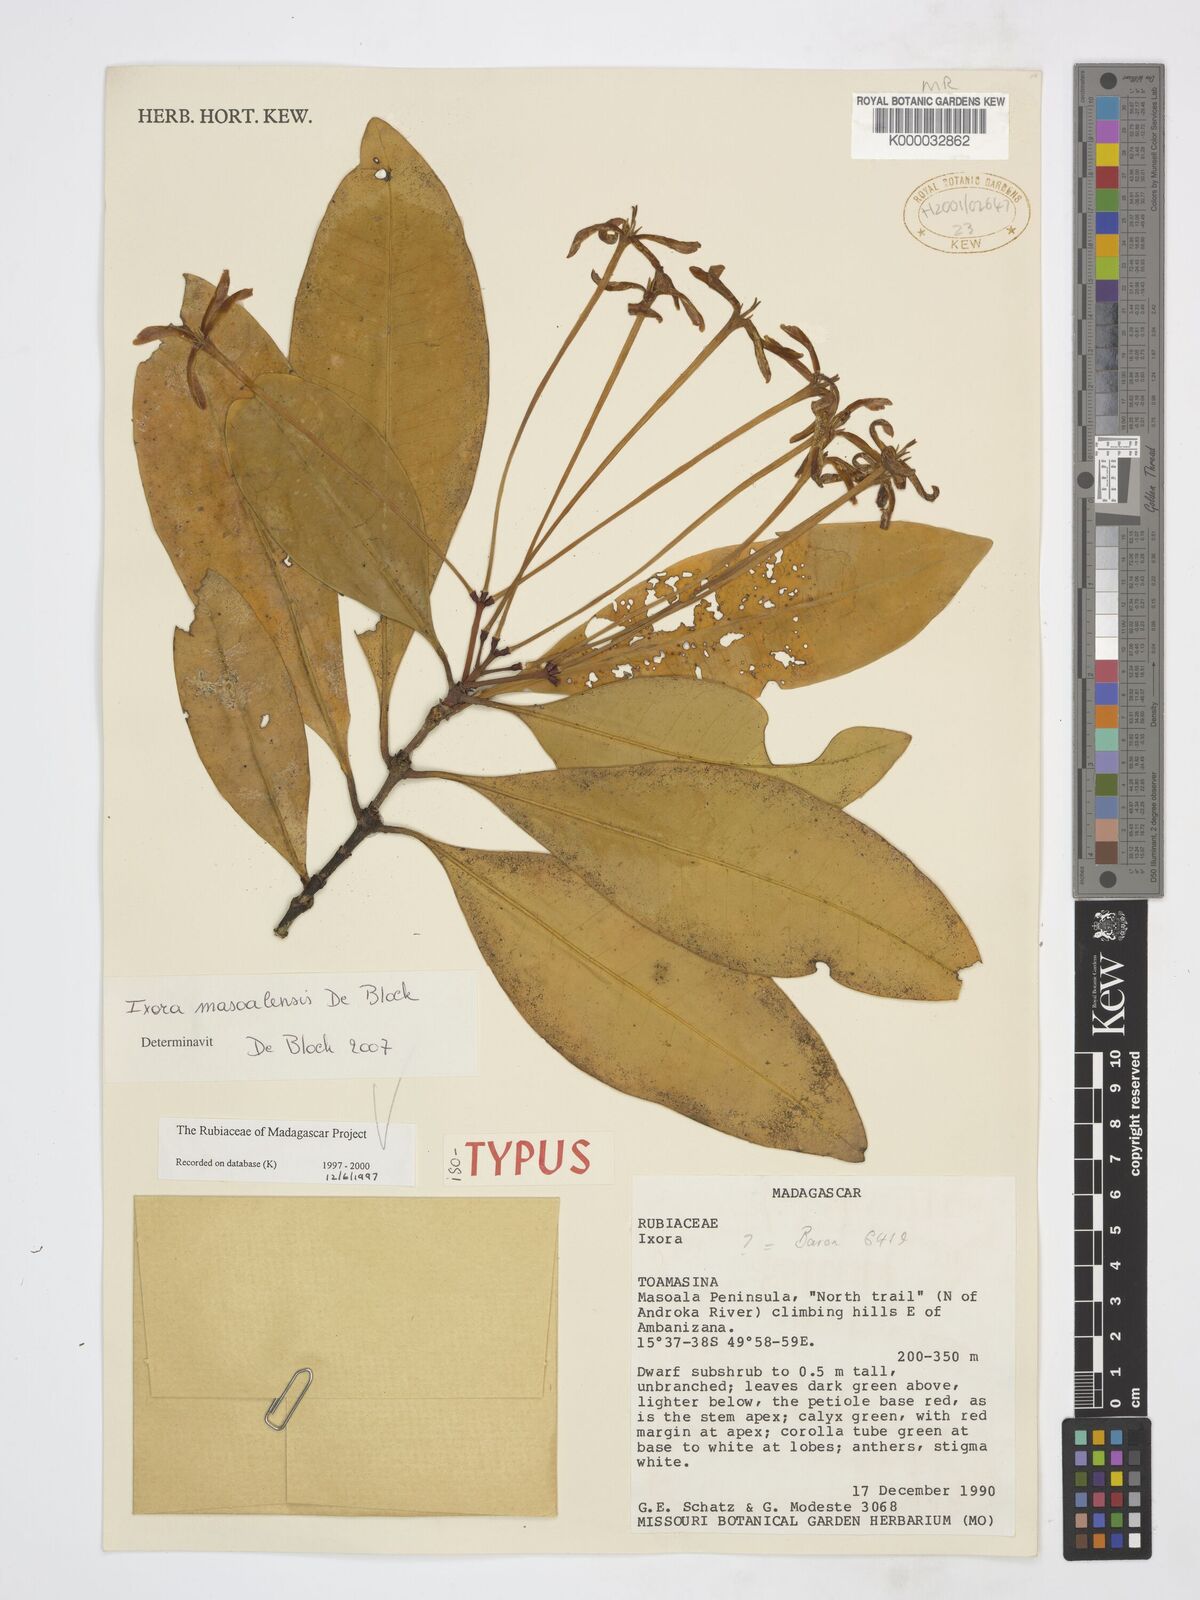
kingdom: Plantae
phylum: Tracheophyta
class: Magnoliopsida
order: Gentianales
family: Rubiaceae
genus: Ixora
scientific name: Ixora masoalensis
